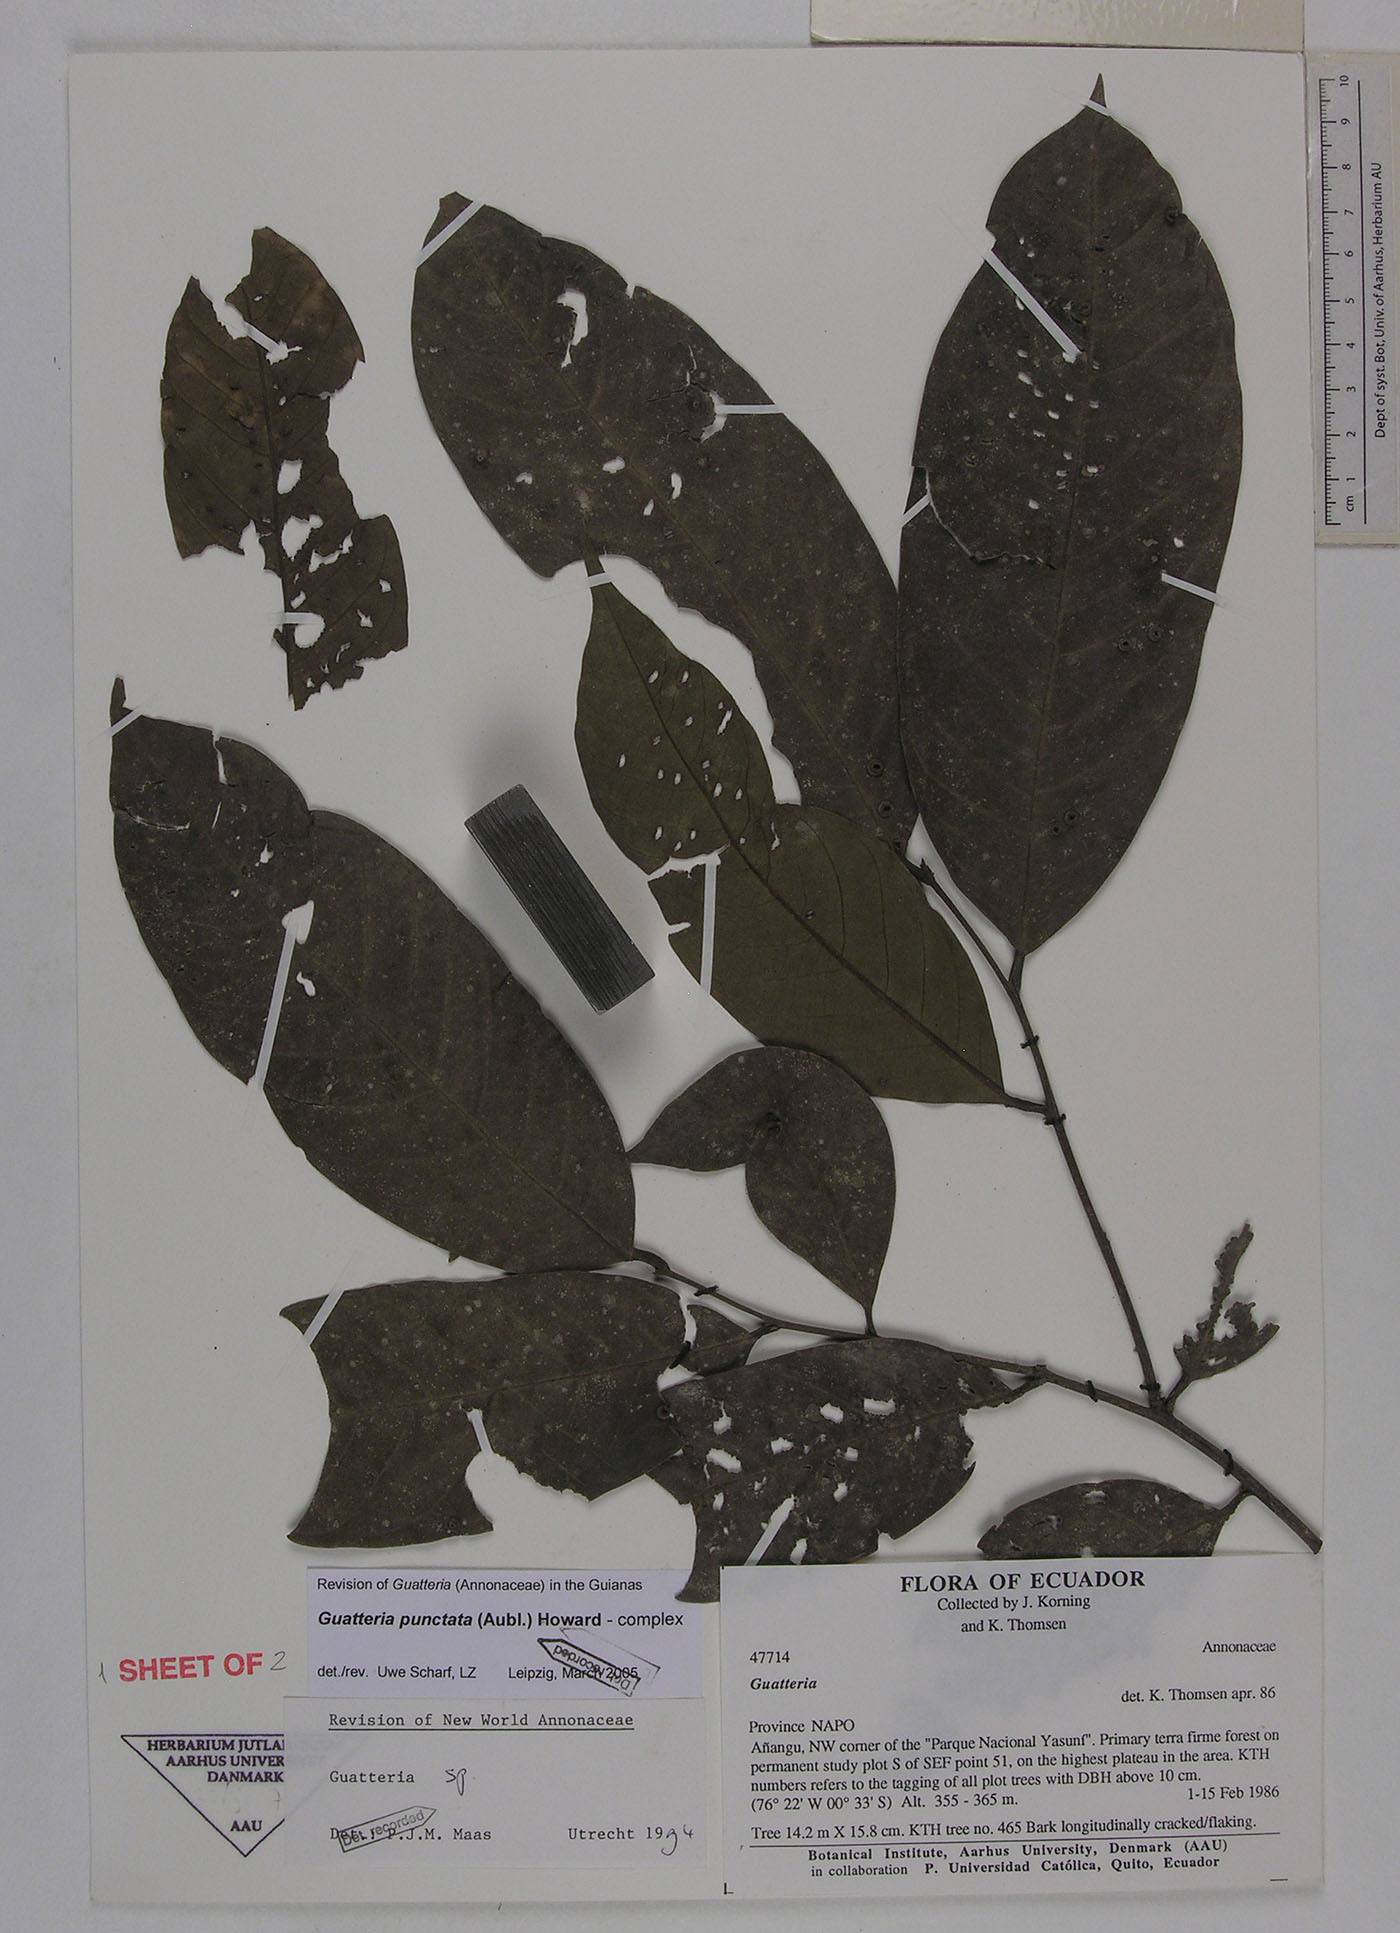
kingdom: Plantae
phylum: Tracheophyta
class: Magnoliopsida
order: Magnoliales
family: Annonaceae
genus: Guatteria
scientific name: Guatteria punctata
